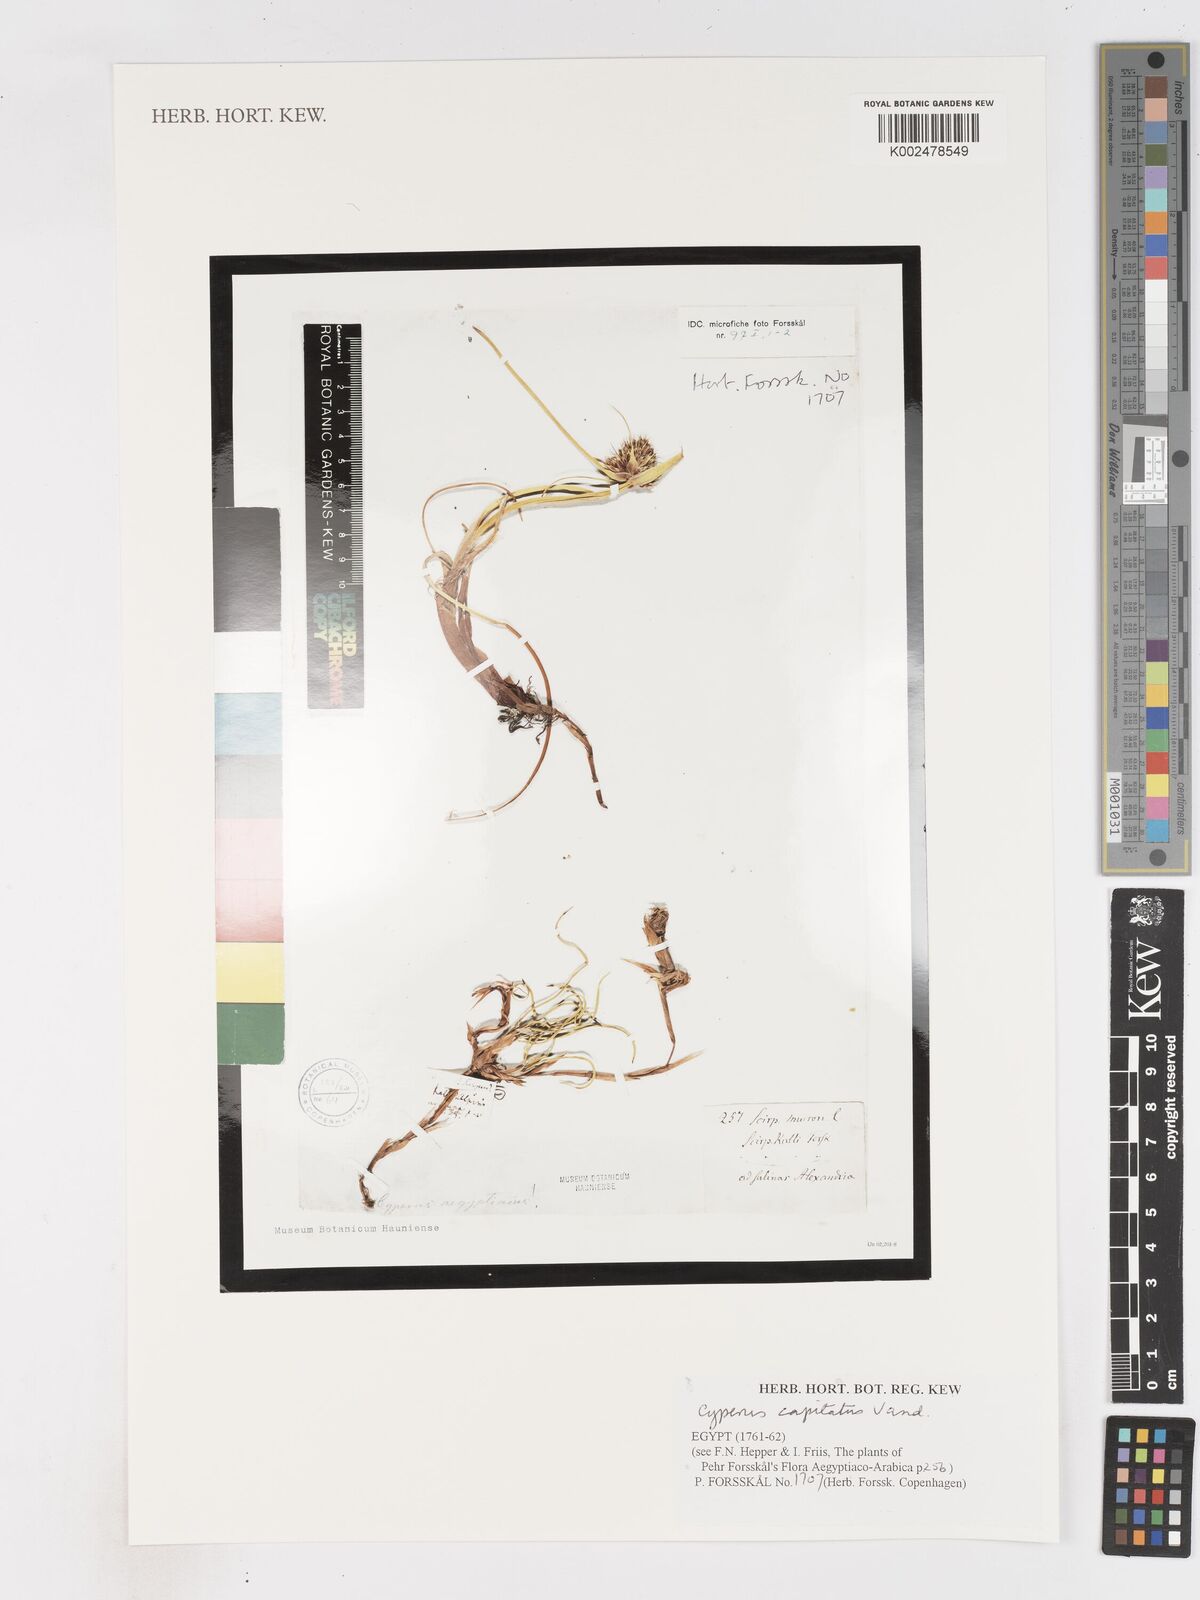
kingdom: Plantae
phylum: Tracheophyta
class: Liliopsida
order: Poales
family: Cyperaceae
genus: Cyperus
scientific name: Cyperus capitatus
